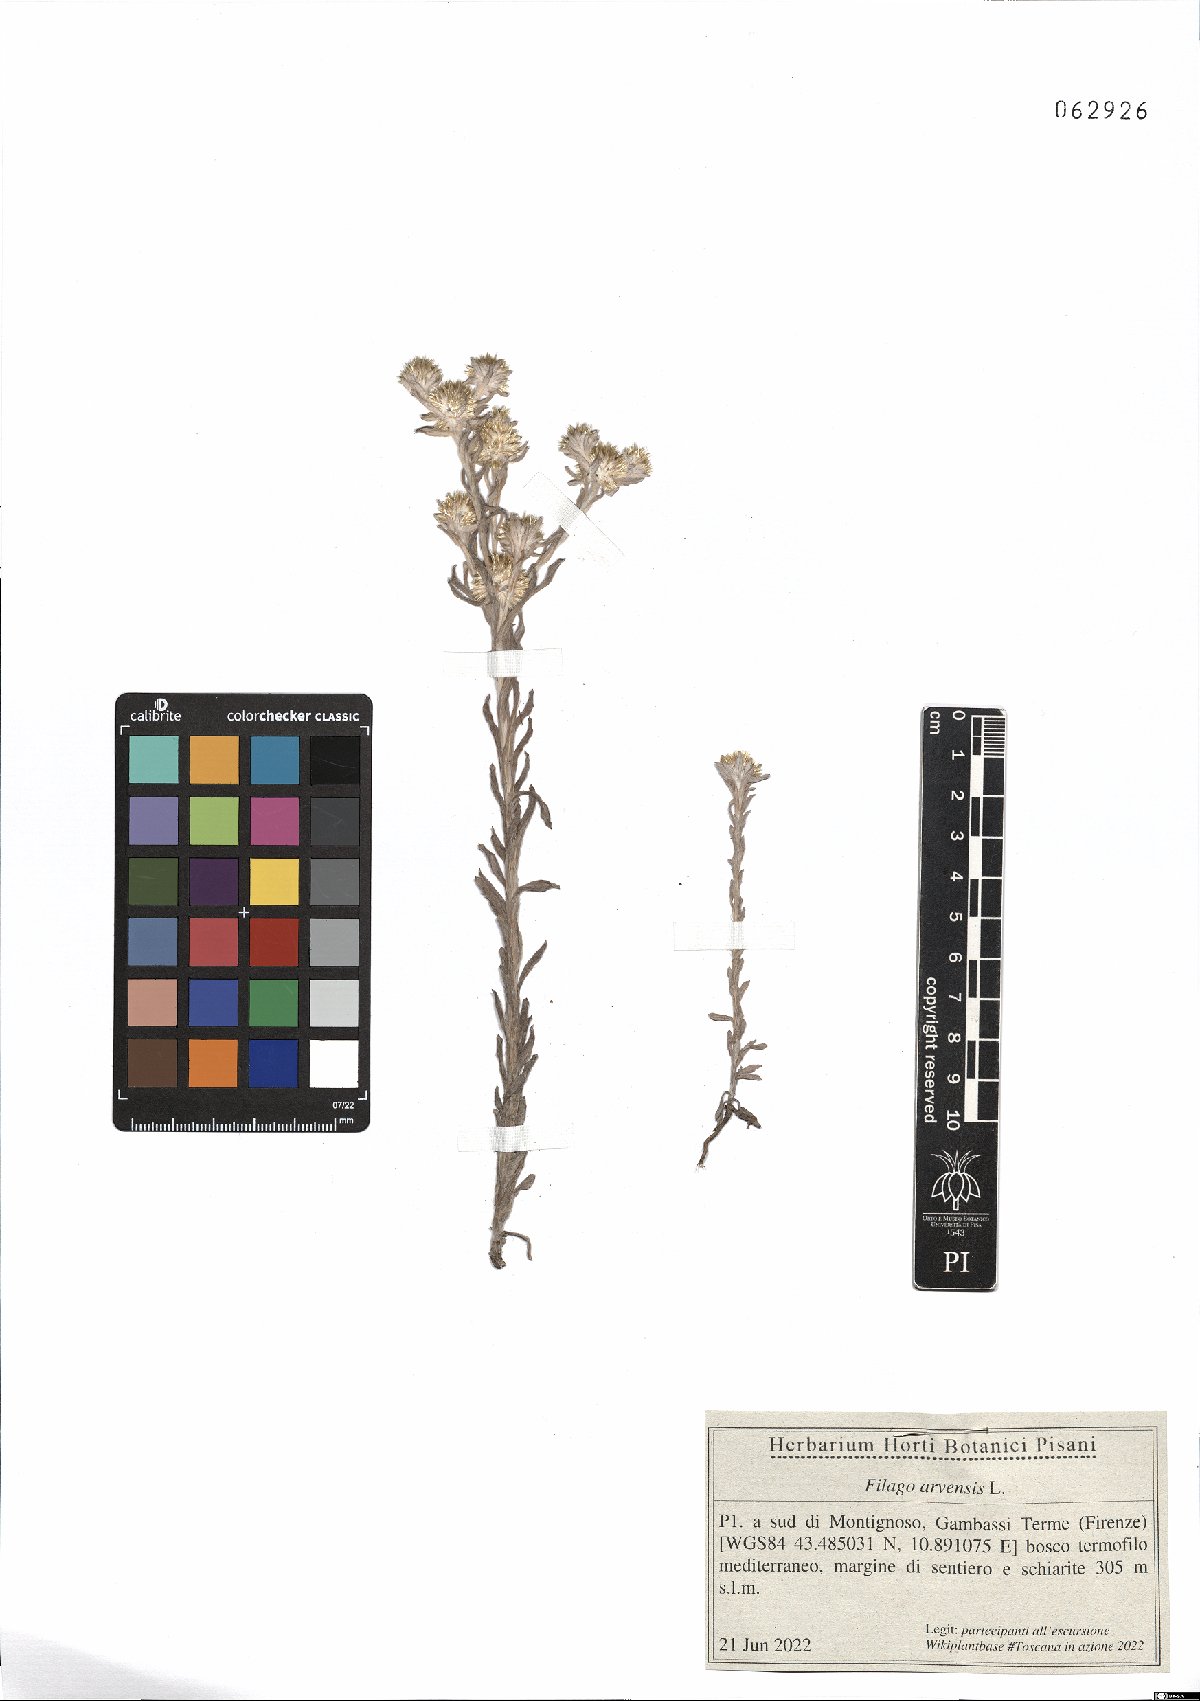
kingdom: Plantae
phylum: Tracheophyta
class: Magnoliopsida
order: Asterales
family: Asteraceae
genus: Filago
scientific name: Filago arvensis
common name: Field cudweed
